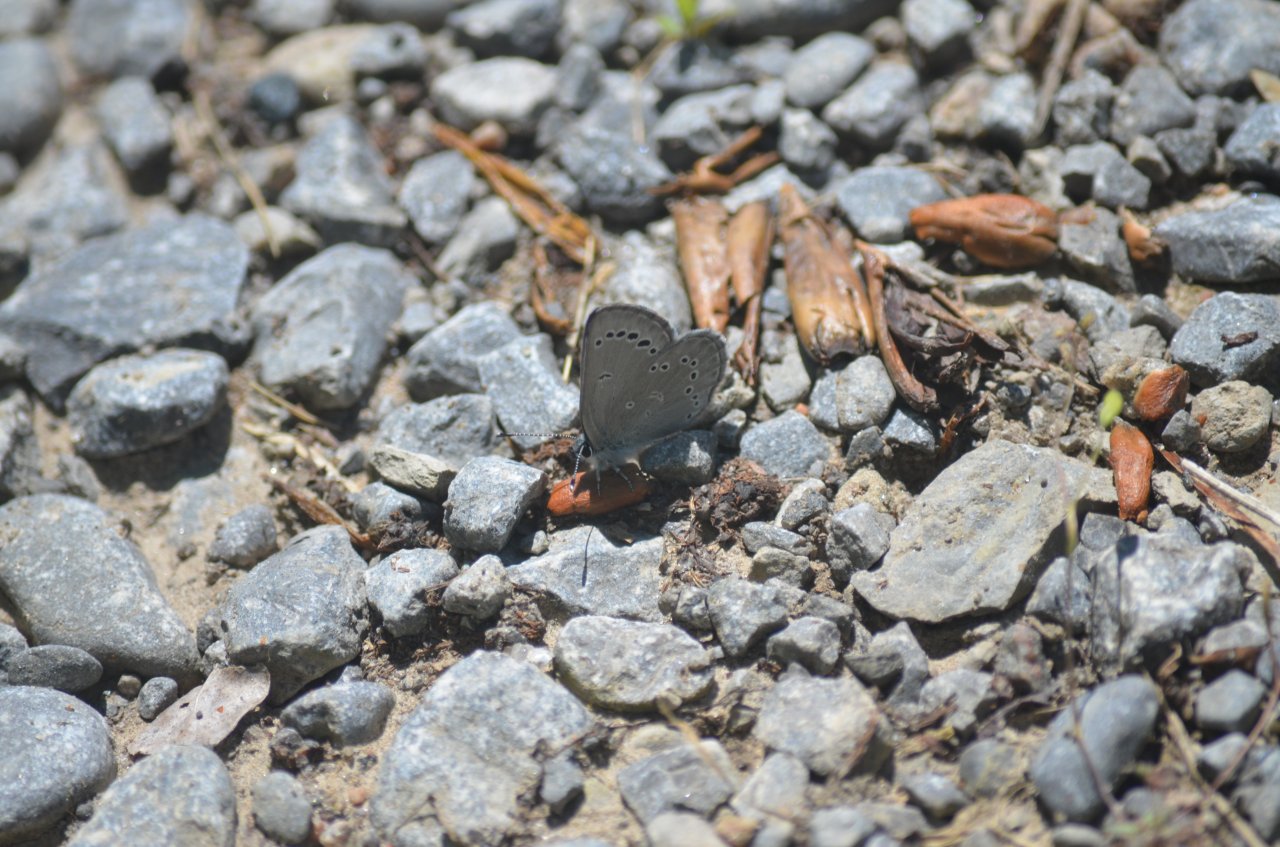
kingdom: Animalia
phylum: Arthropoda
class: Insecta
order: Lepidoptera
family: Lycaenidae
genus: Glaucopsyche
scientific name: Glaucopsyche lygdamus
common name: Silvery Blue
